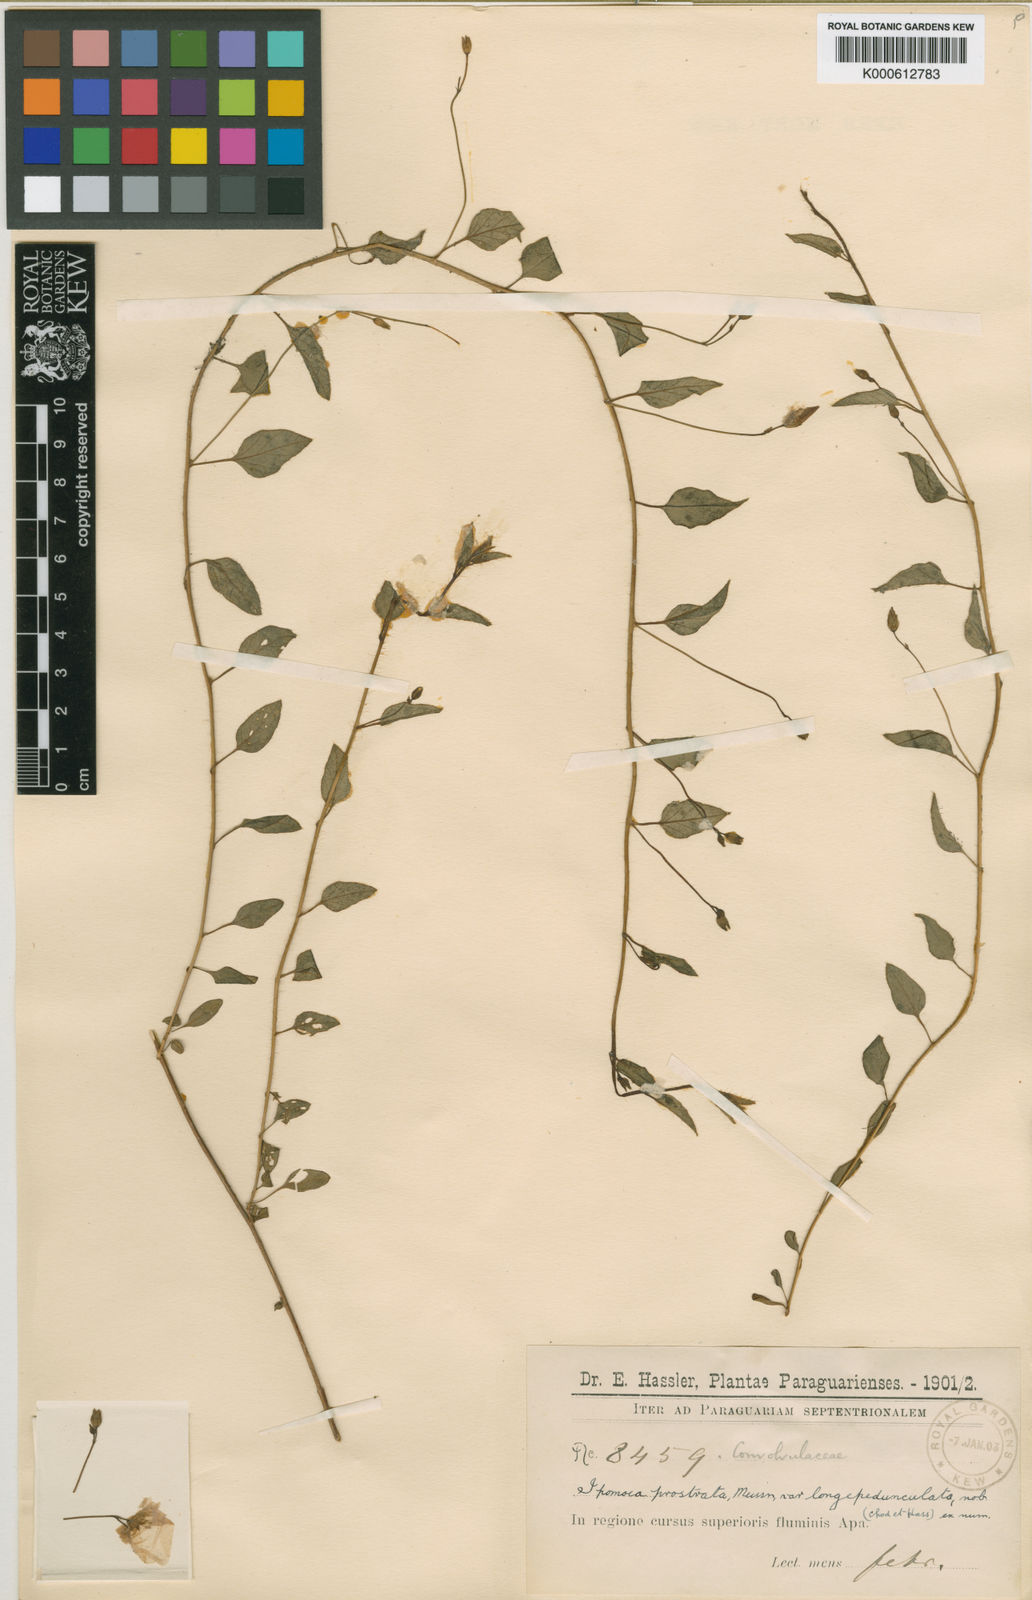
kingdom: Plantae
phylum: Tracheophyta
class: Magnoliopsida
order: Solanales
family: Convolvulaceae
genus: Jacquemontia
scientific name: Jacquemontia warmingii
